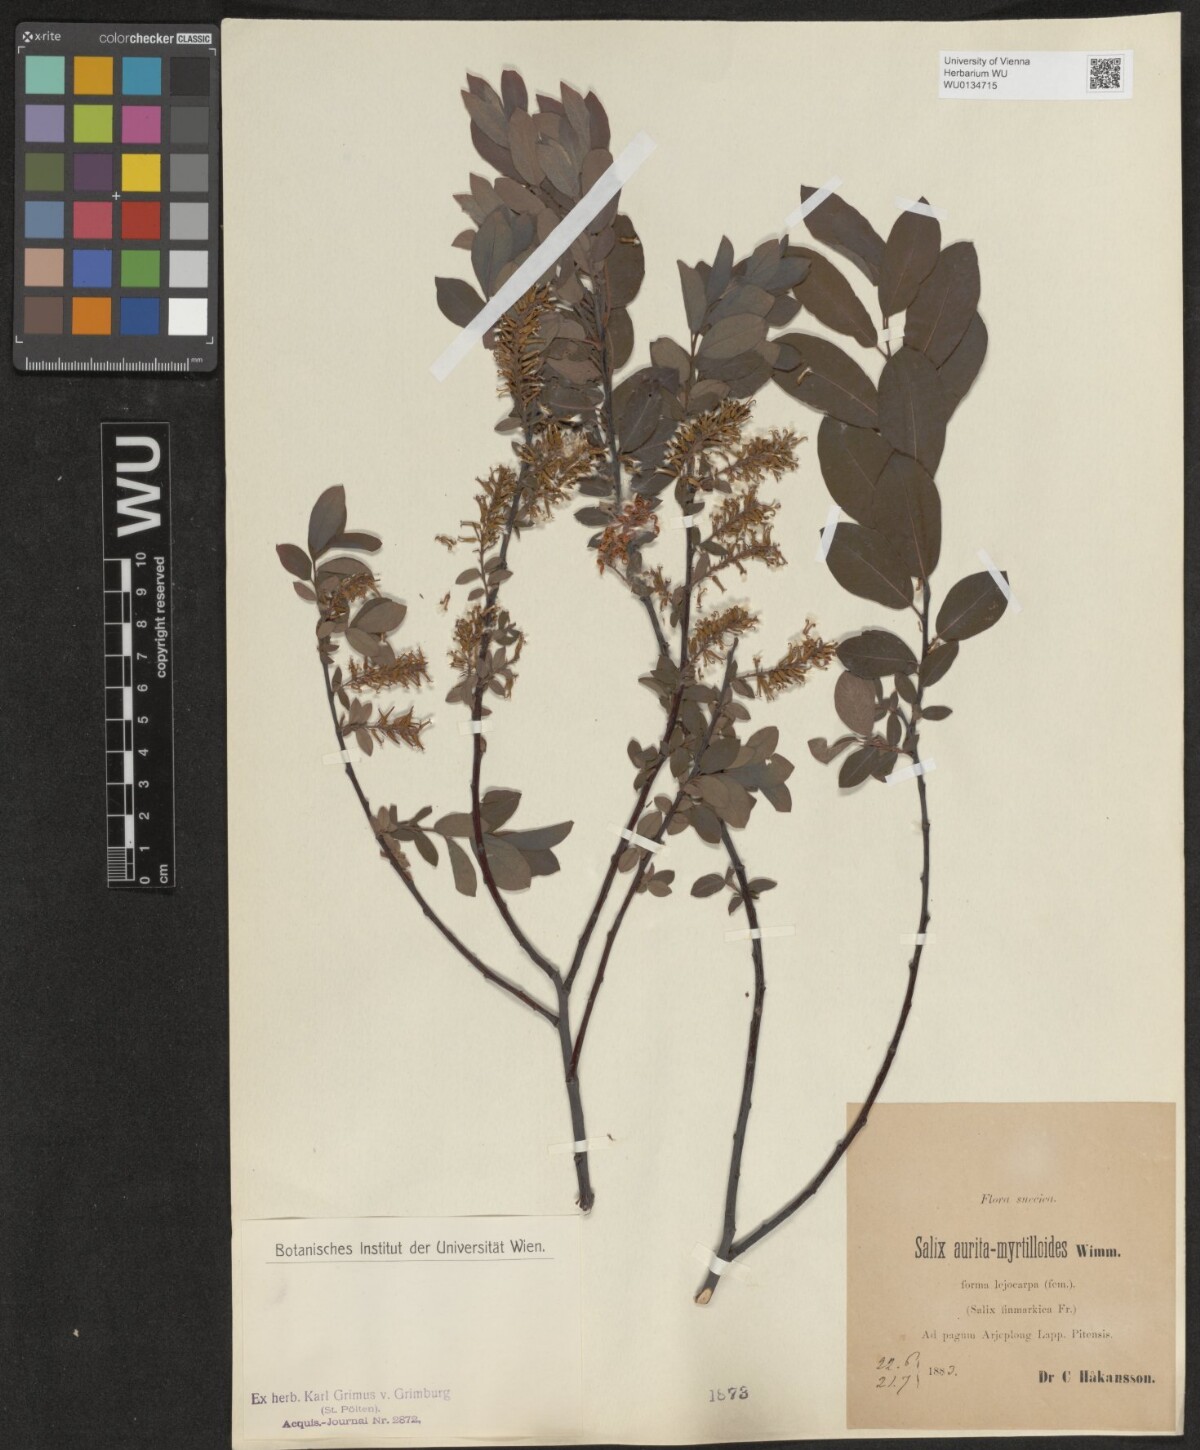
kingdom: Plantae
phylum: Tracheophyta
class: Magnoliopsida
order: Malpighiales
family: Salicaceae
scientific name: Salicaceae
